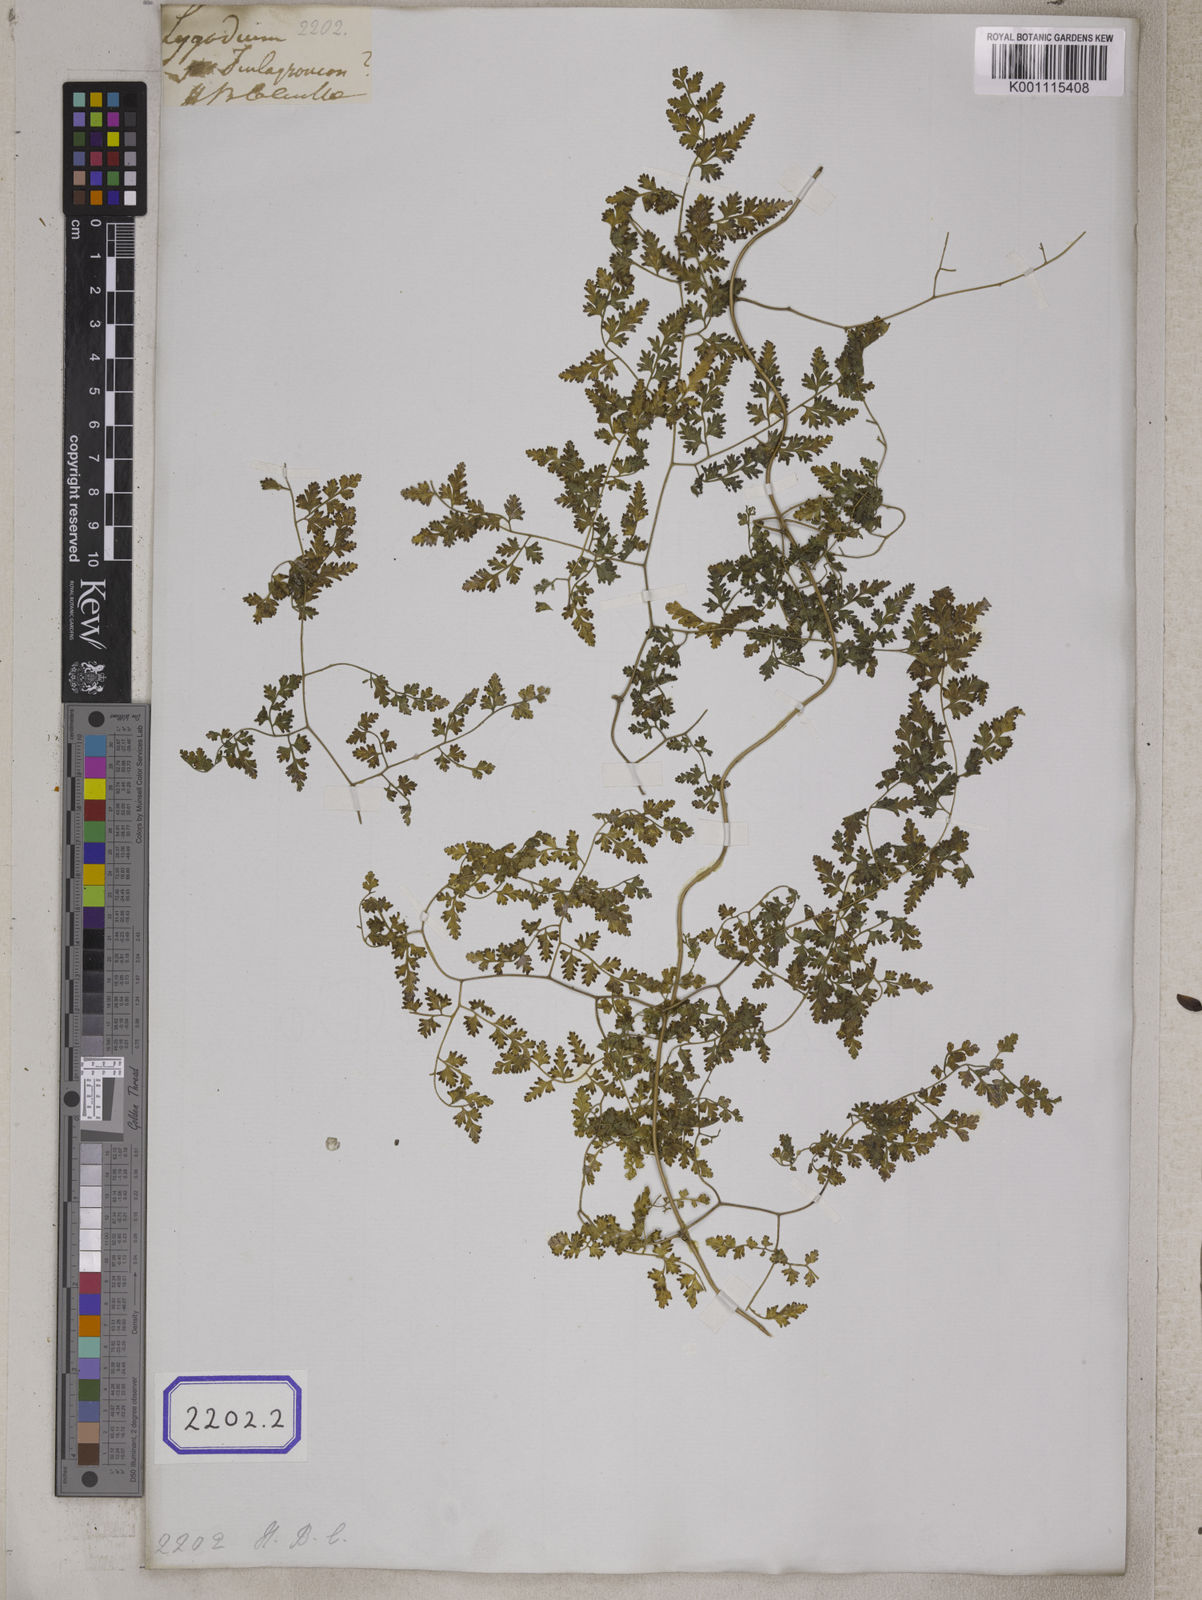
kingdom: Plantae
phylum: Tracheophyta
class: Polypodiopsida
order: Schizaeales
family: Lygodiaceae
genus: Lygodium
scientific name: Lygodium japonicum
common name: Japanese climbing fern
